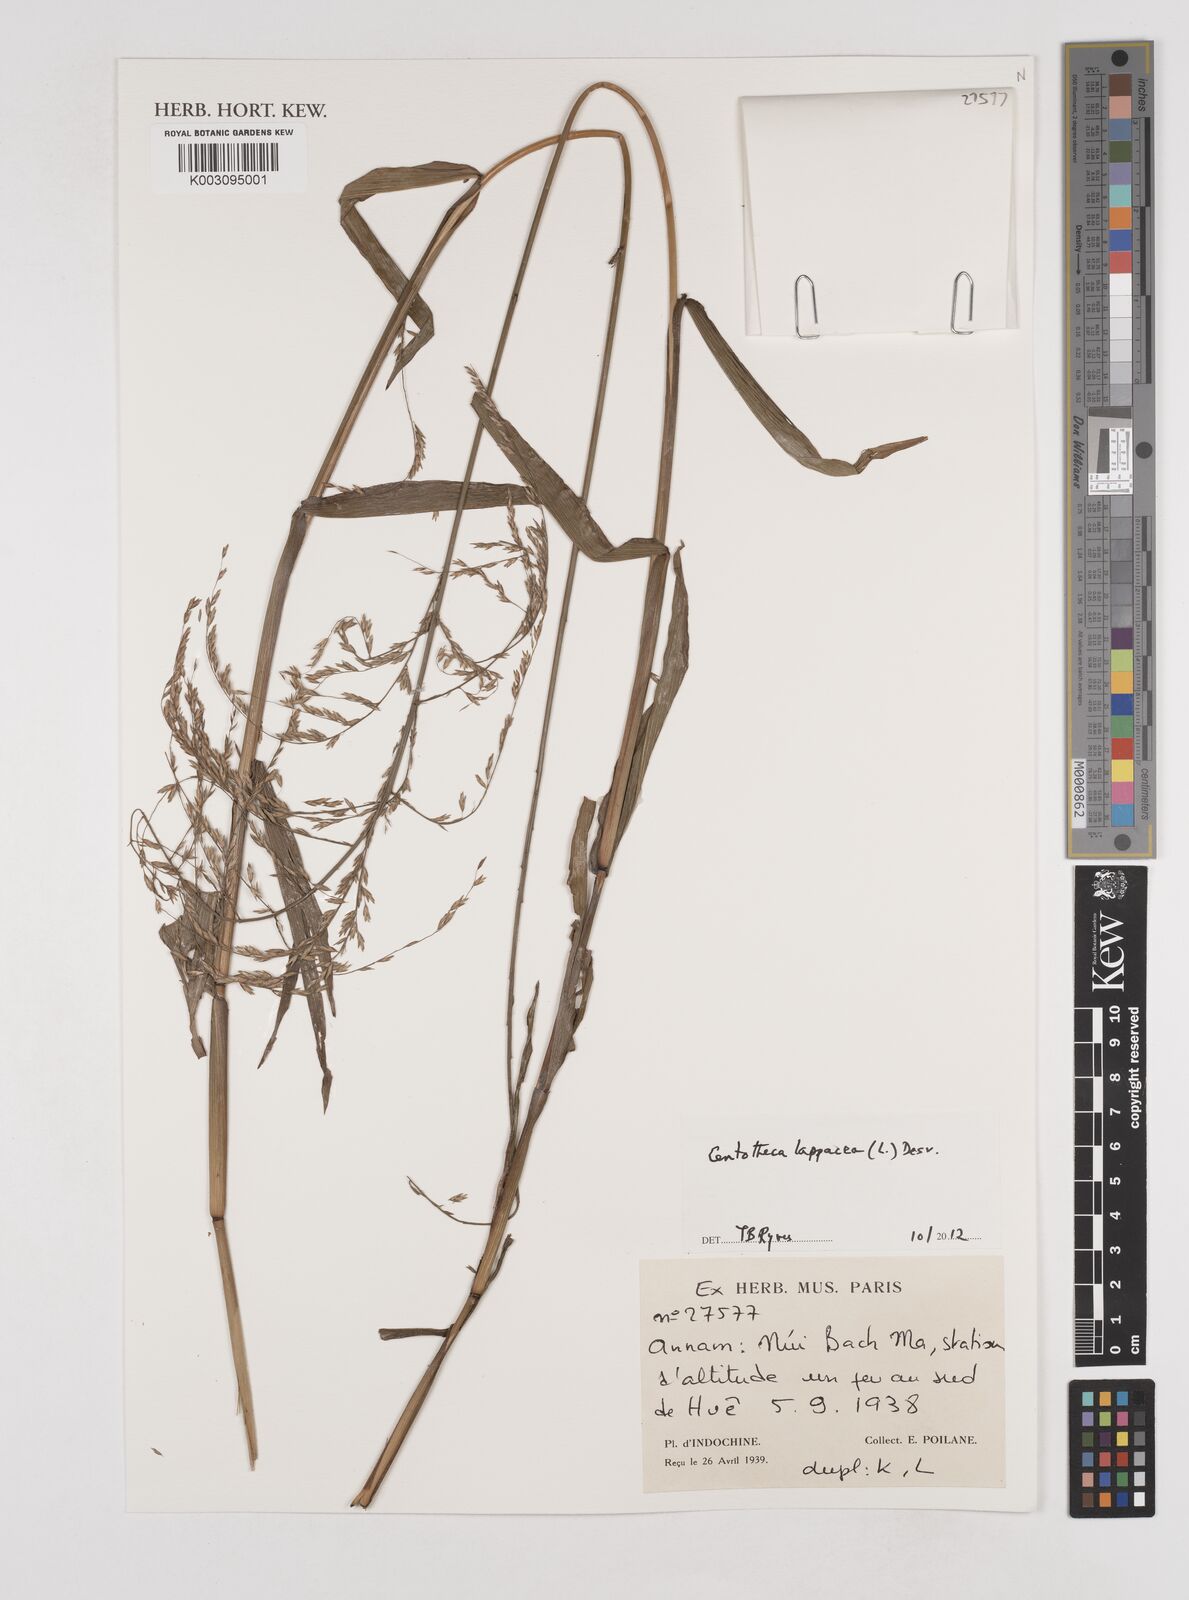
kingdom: Plantae
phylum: Tracheophyta
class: Liliopsida
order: Poales
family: Poaceae
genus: Centotheca
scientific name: Centotheca lappacea
